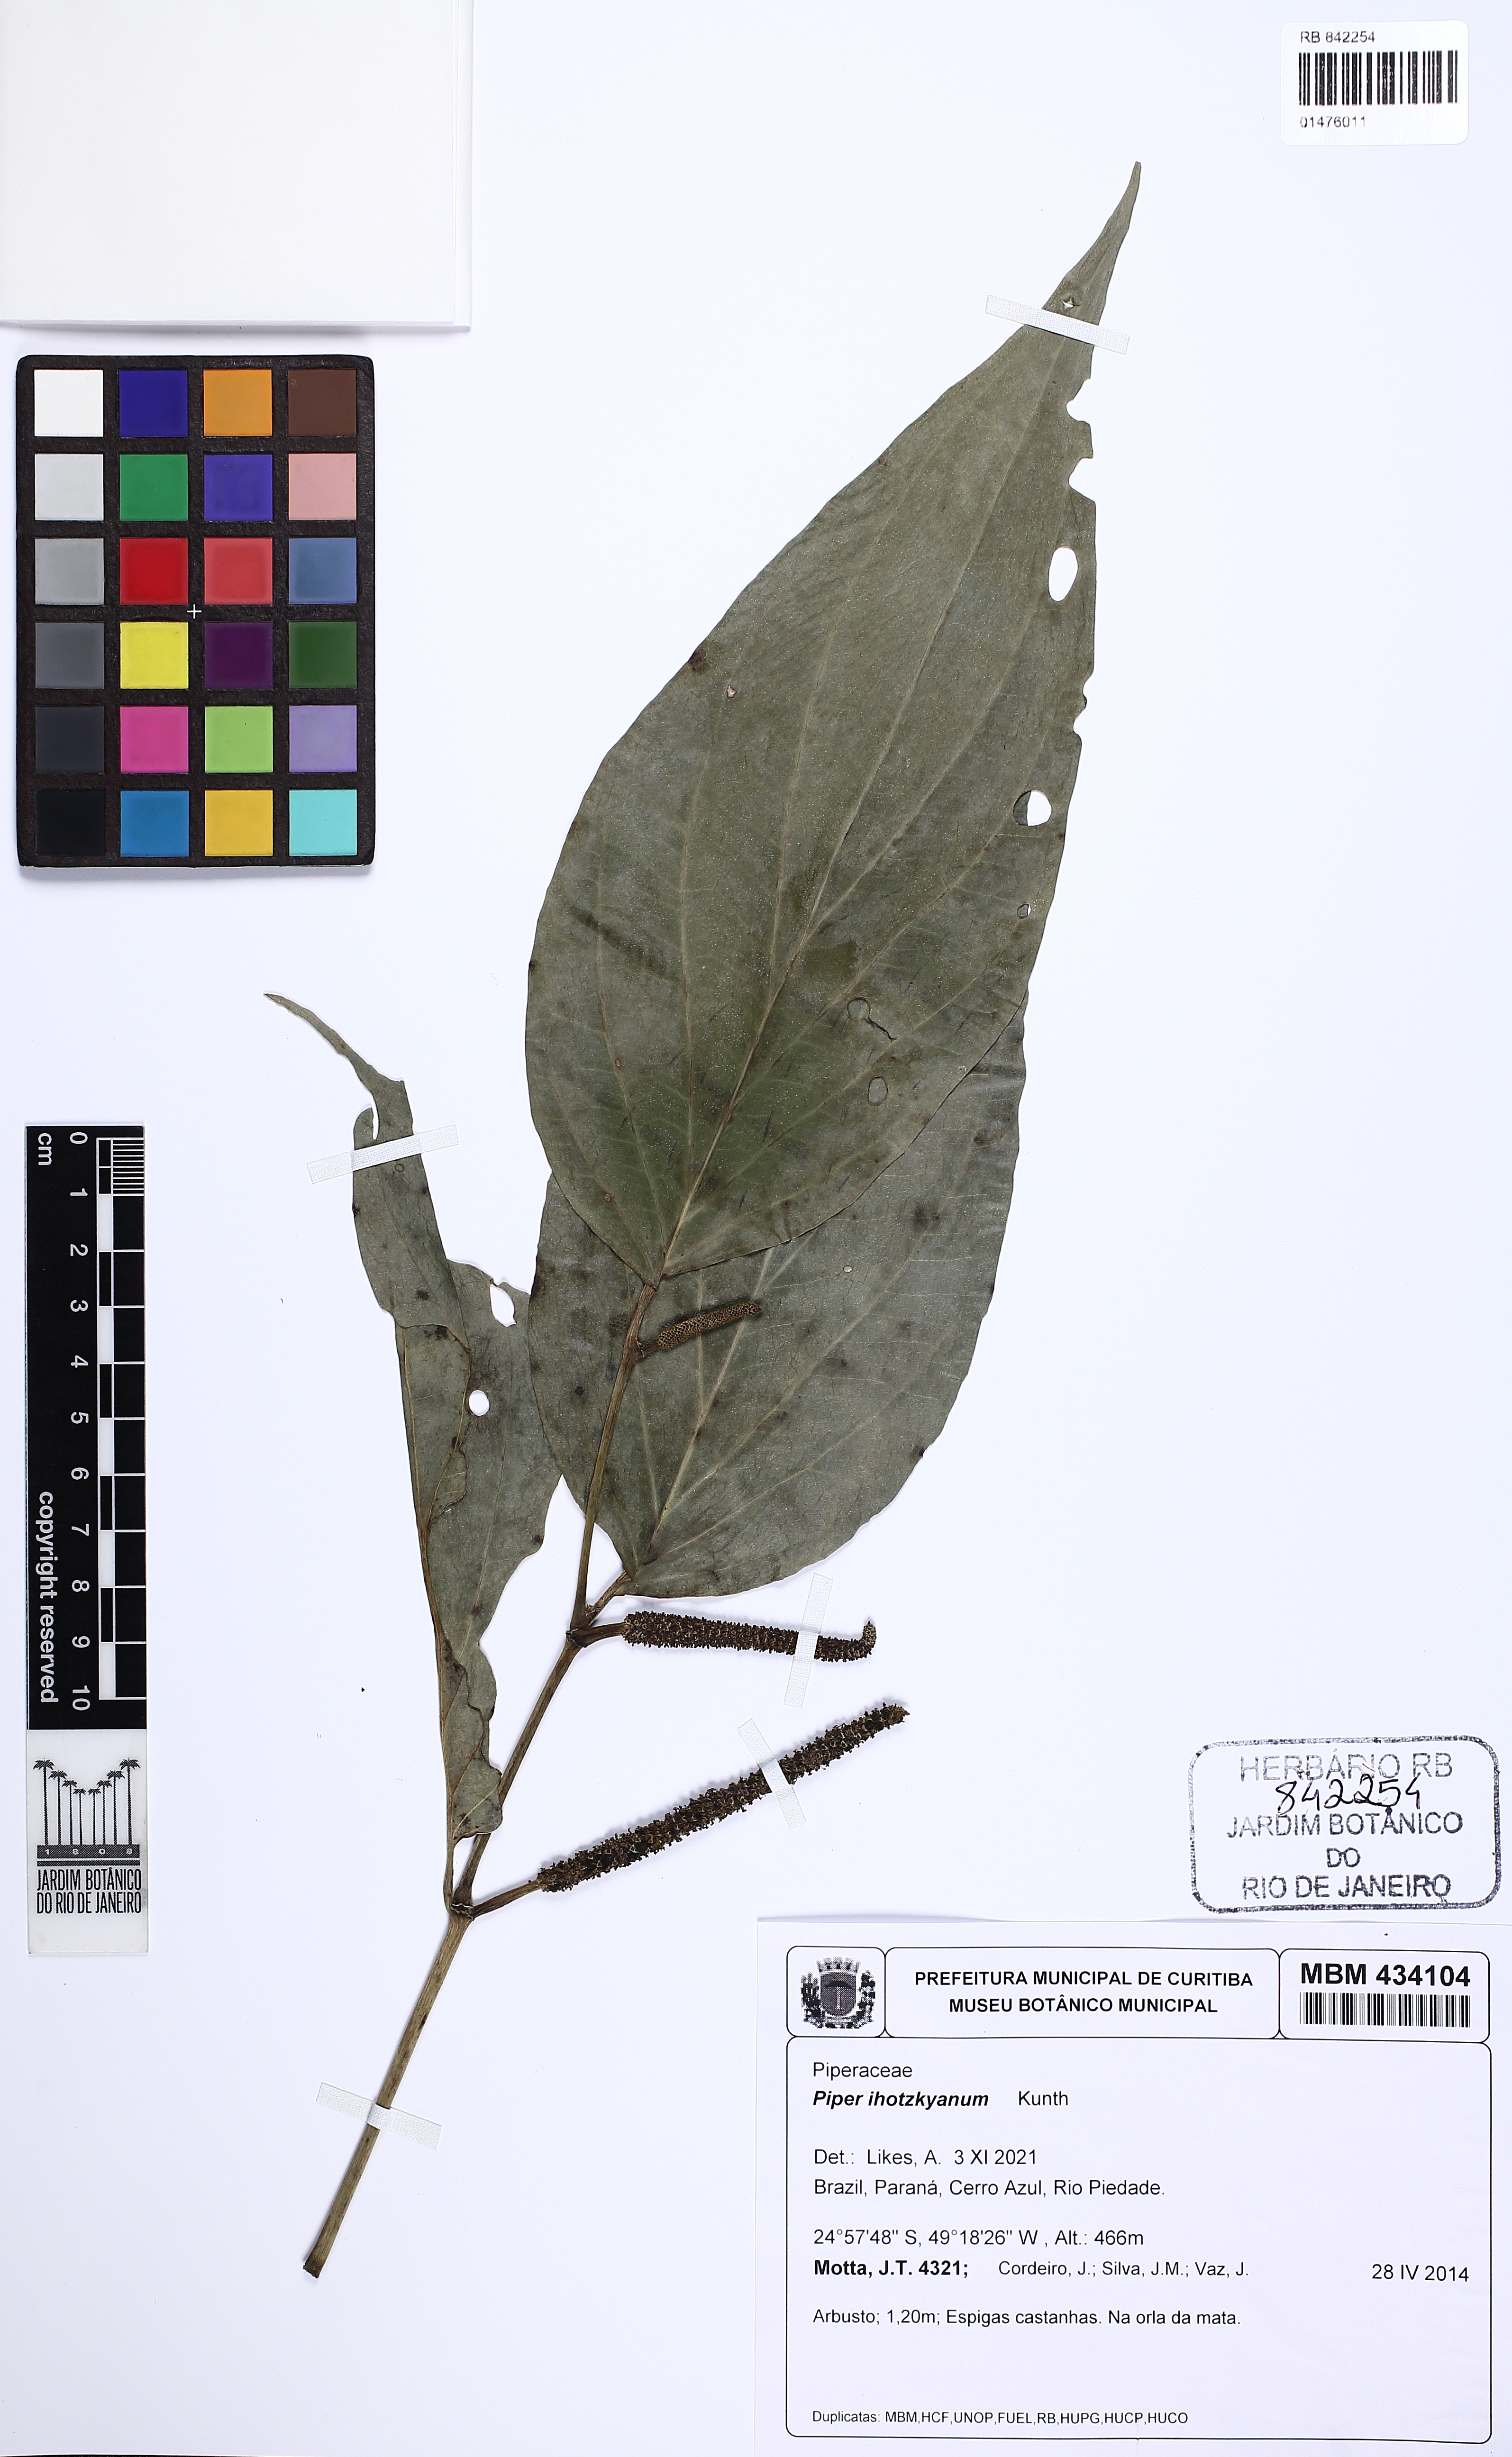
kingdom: Plantae
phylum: Tracheophyta
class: Magnoliopsida
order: Piperales
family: Piperaceae
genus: Piper
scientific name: Piper lhotzkyanum
